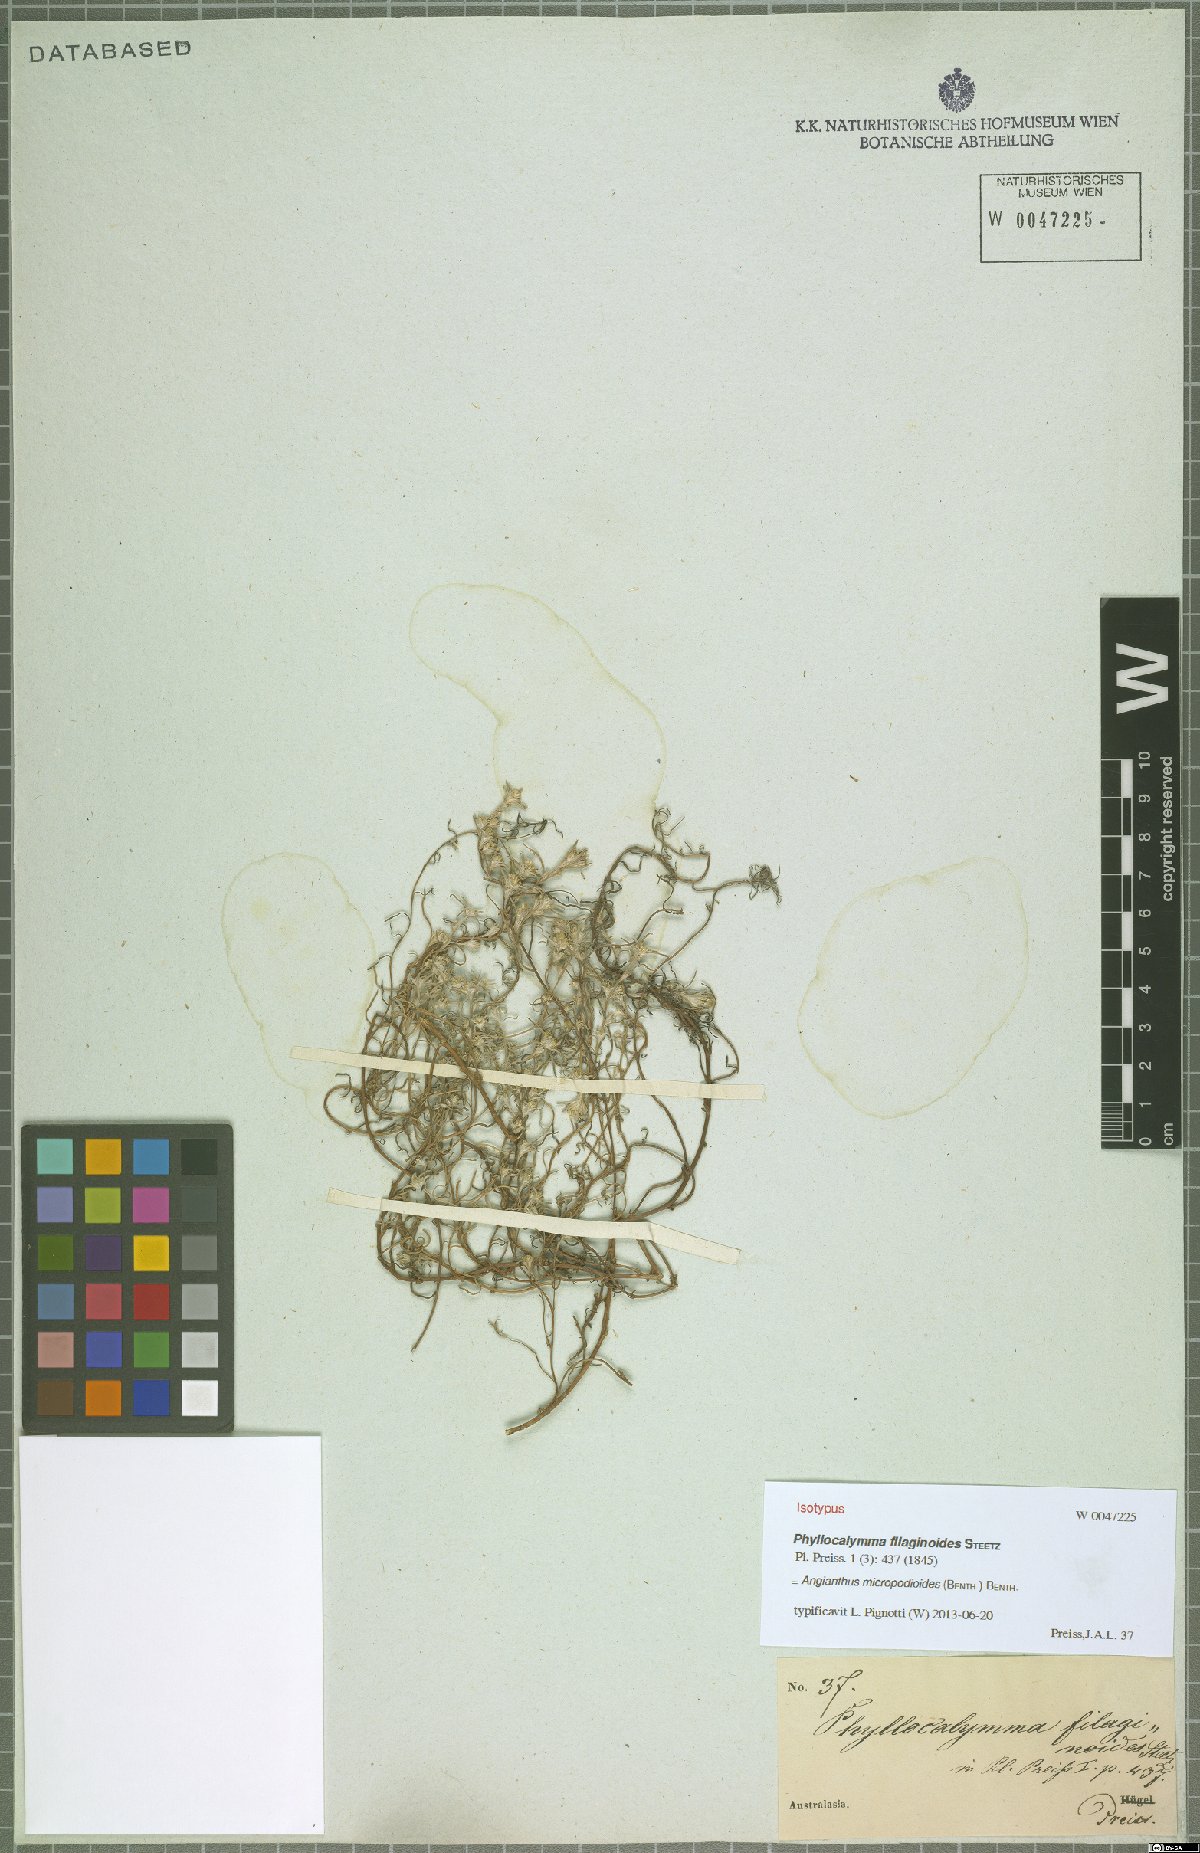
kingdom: Plantae
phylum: Tracheophyta
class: Magnoliopsida
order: Asterales
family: Asteraceae
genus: Angianthus
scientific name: Angianthus micropodioides
